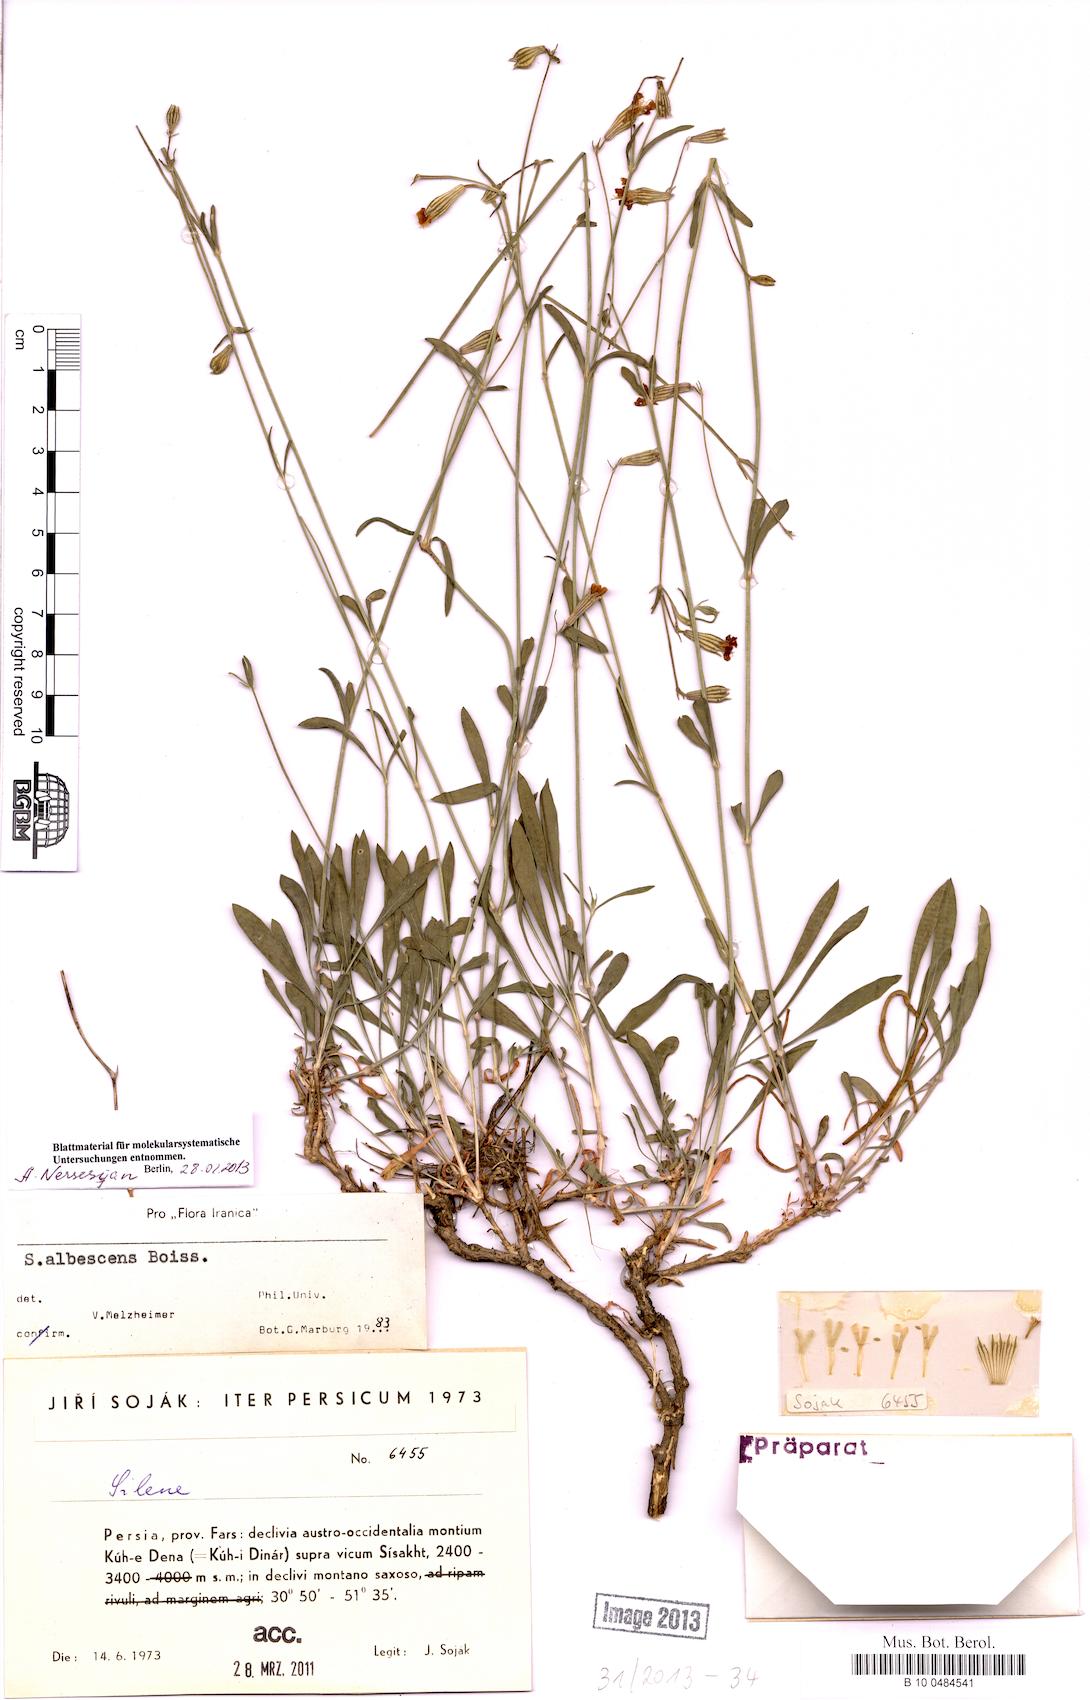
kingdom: Plantae
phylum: Tracheophyta
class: Magnoliopsida
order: Caryophyllales
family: Caryophyllaceae
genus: Silene
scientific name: Silene albescens
